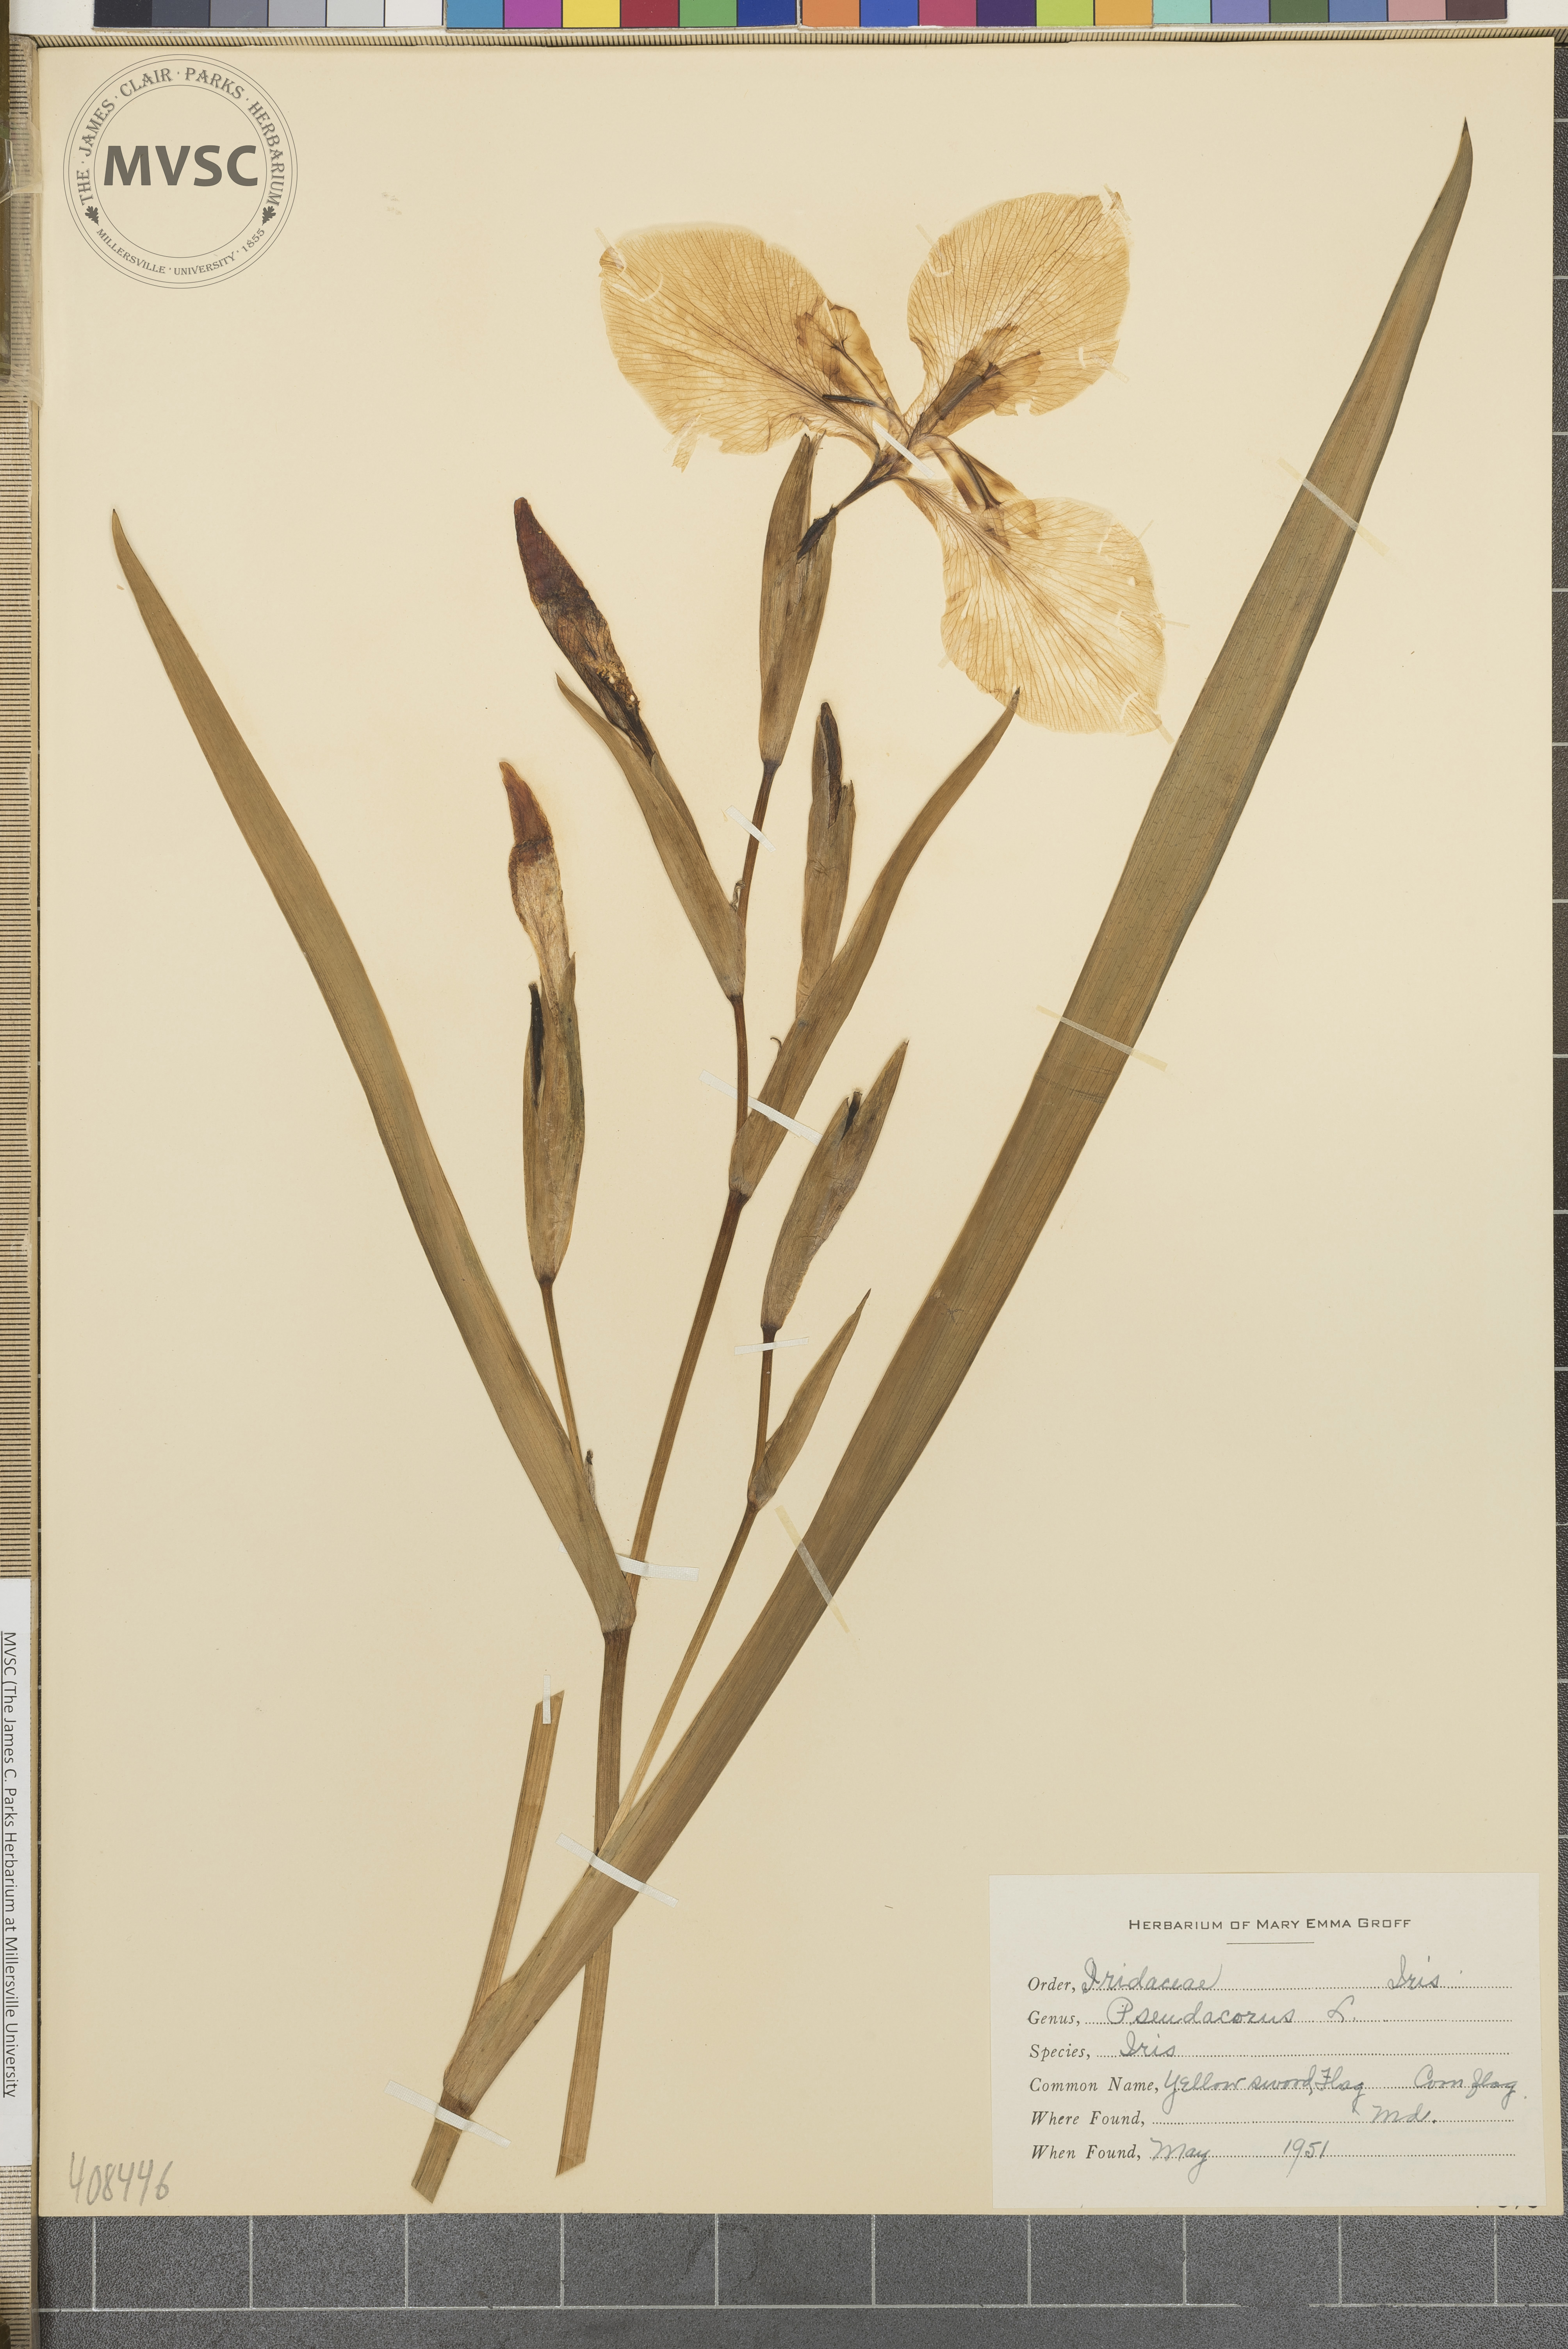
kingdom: Plantae
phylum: Tracheophyta
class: Liliopsida
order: Asparagales
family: Iridaceae
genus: Iris
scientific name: Iris pseudacorus
